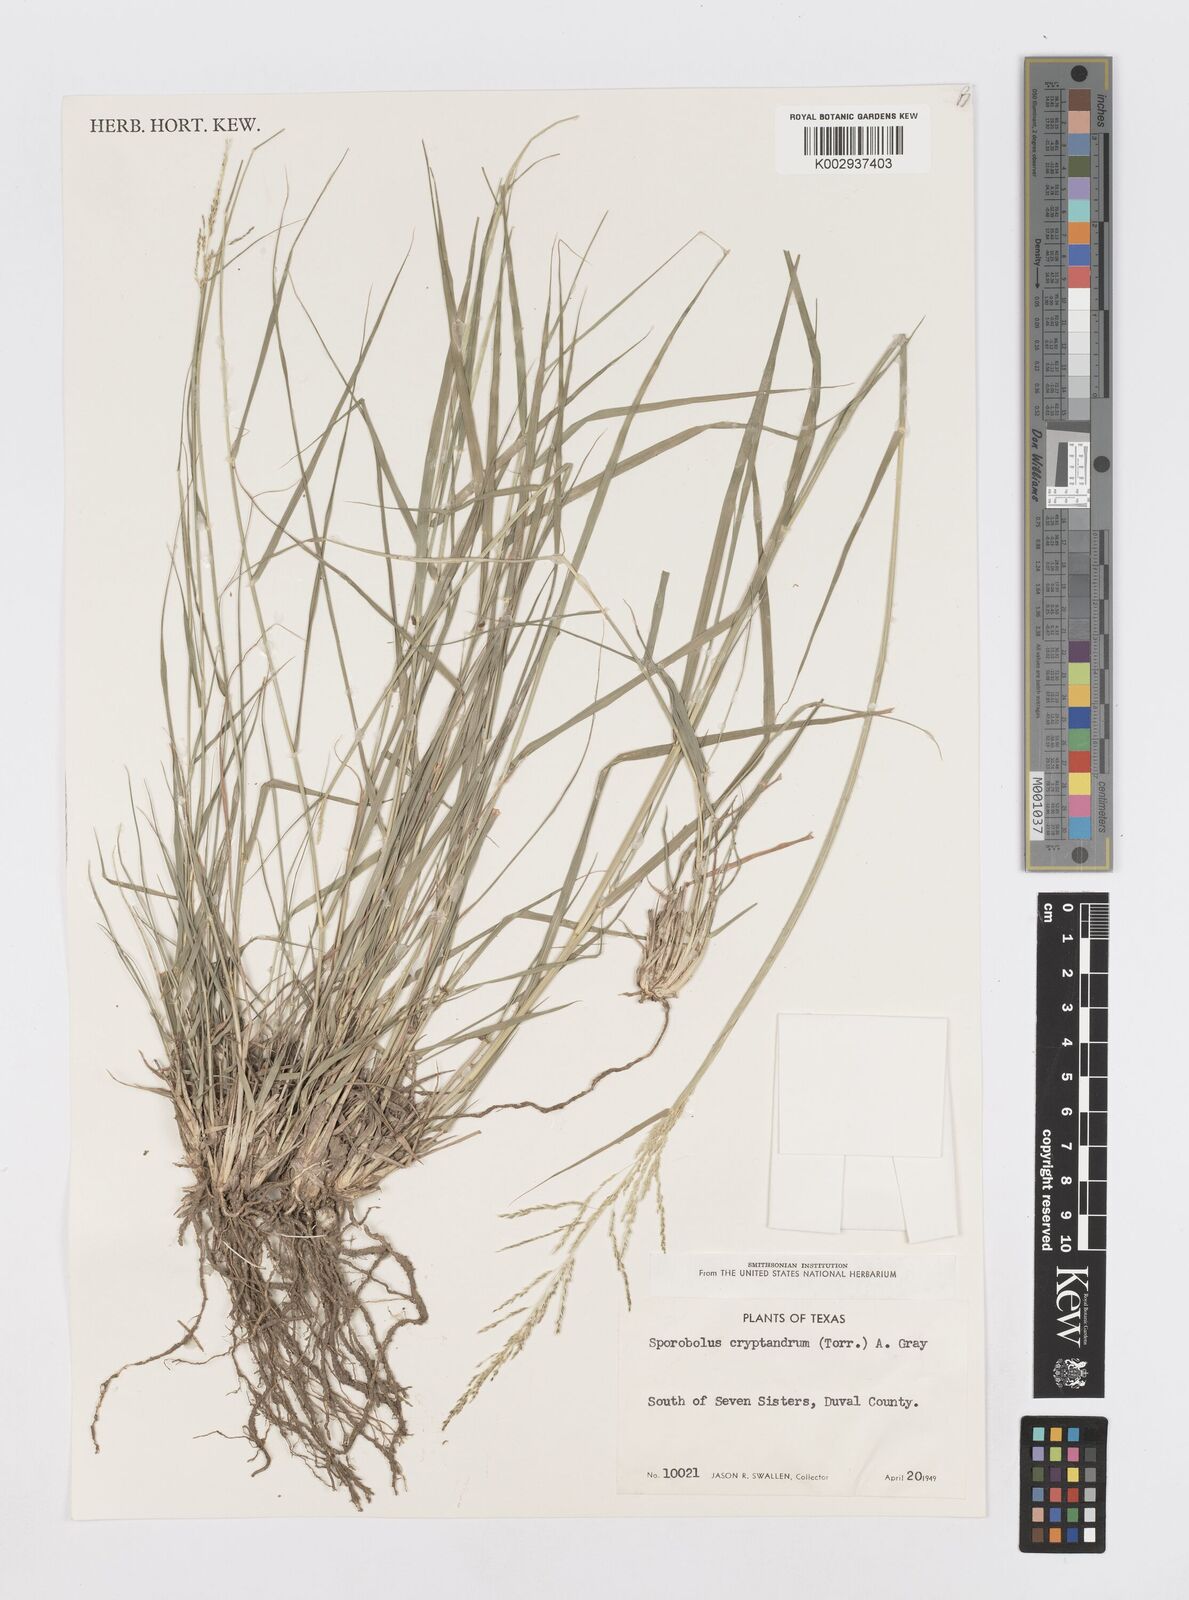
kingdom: Plantae
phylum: Tracheophyta
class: Liliopsida
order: Poales
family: Poaceae
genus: Sporobolus
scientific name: Sporobolus cryptandrus
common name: Sand dropseed
